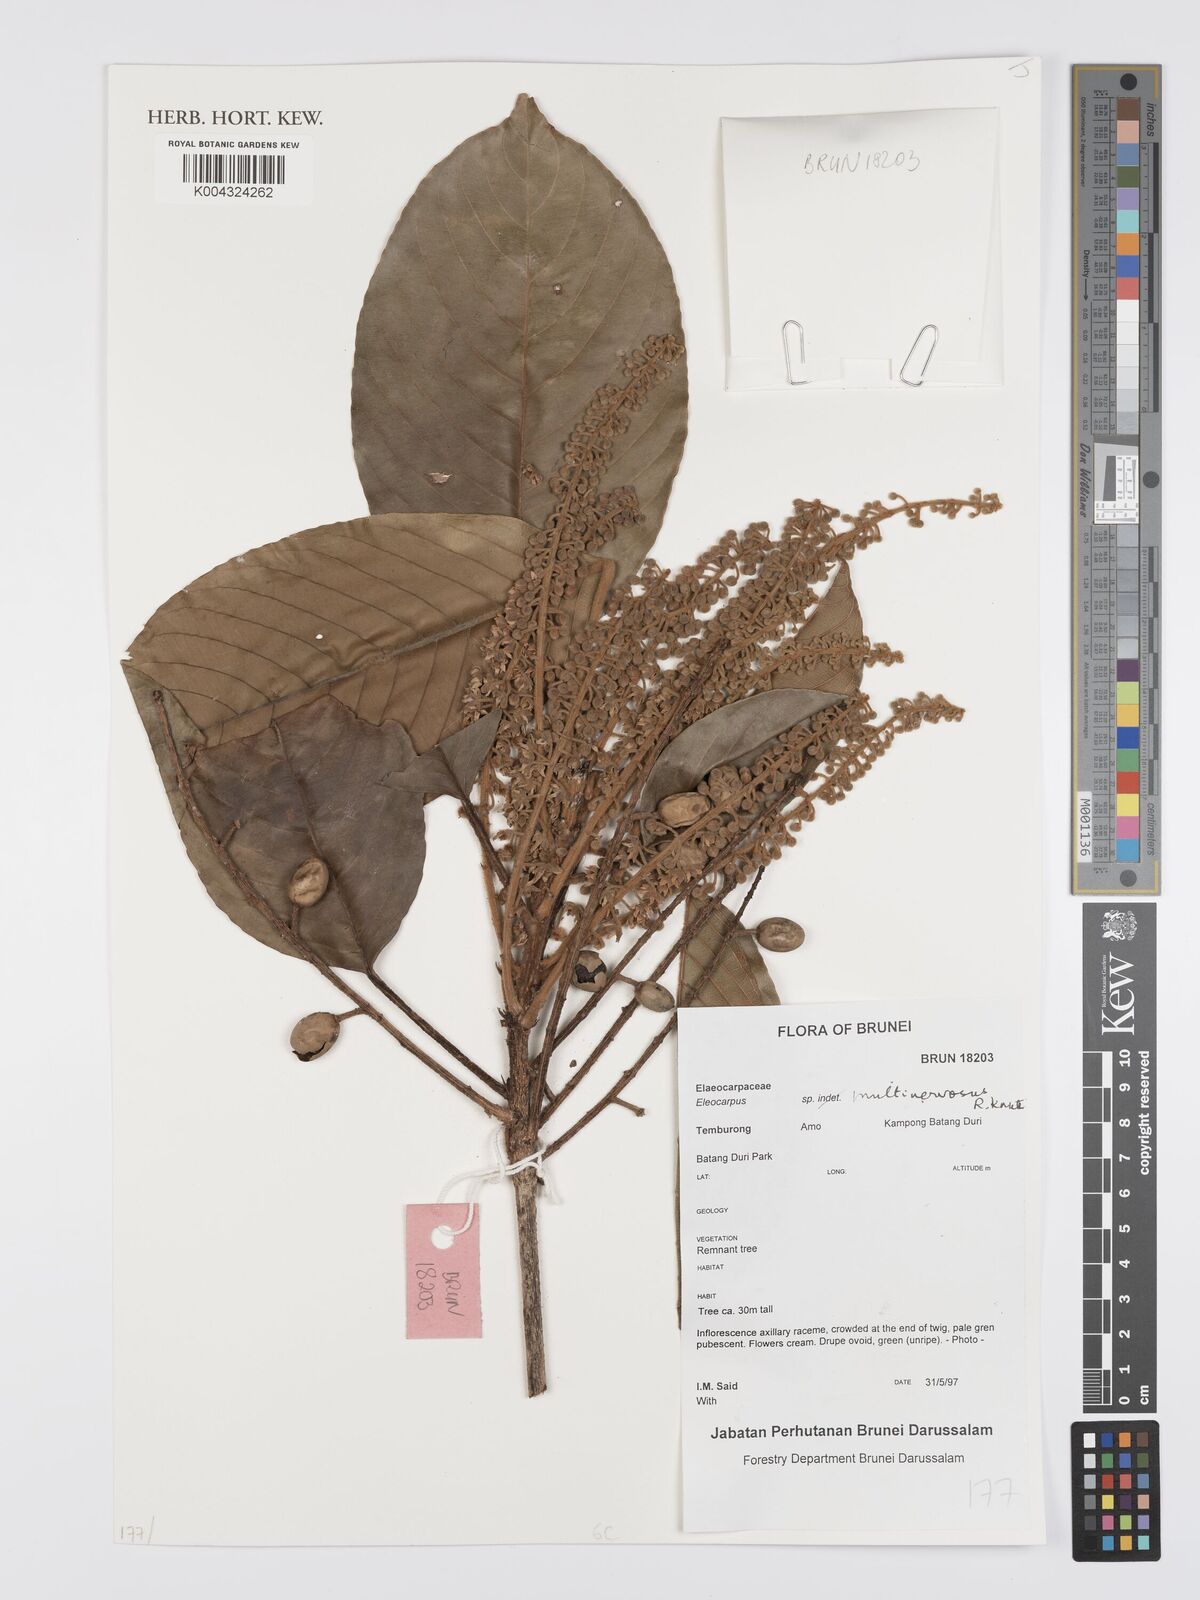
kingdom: Plantae
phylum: Tracheophyta
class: Magnoliopsida
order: Oxalidales
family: Elaeocarpaceae
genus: Elaeocarpus
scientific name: Elaeocarpus multinervosus
